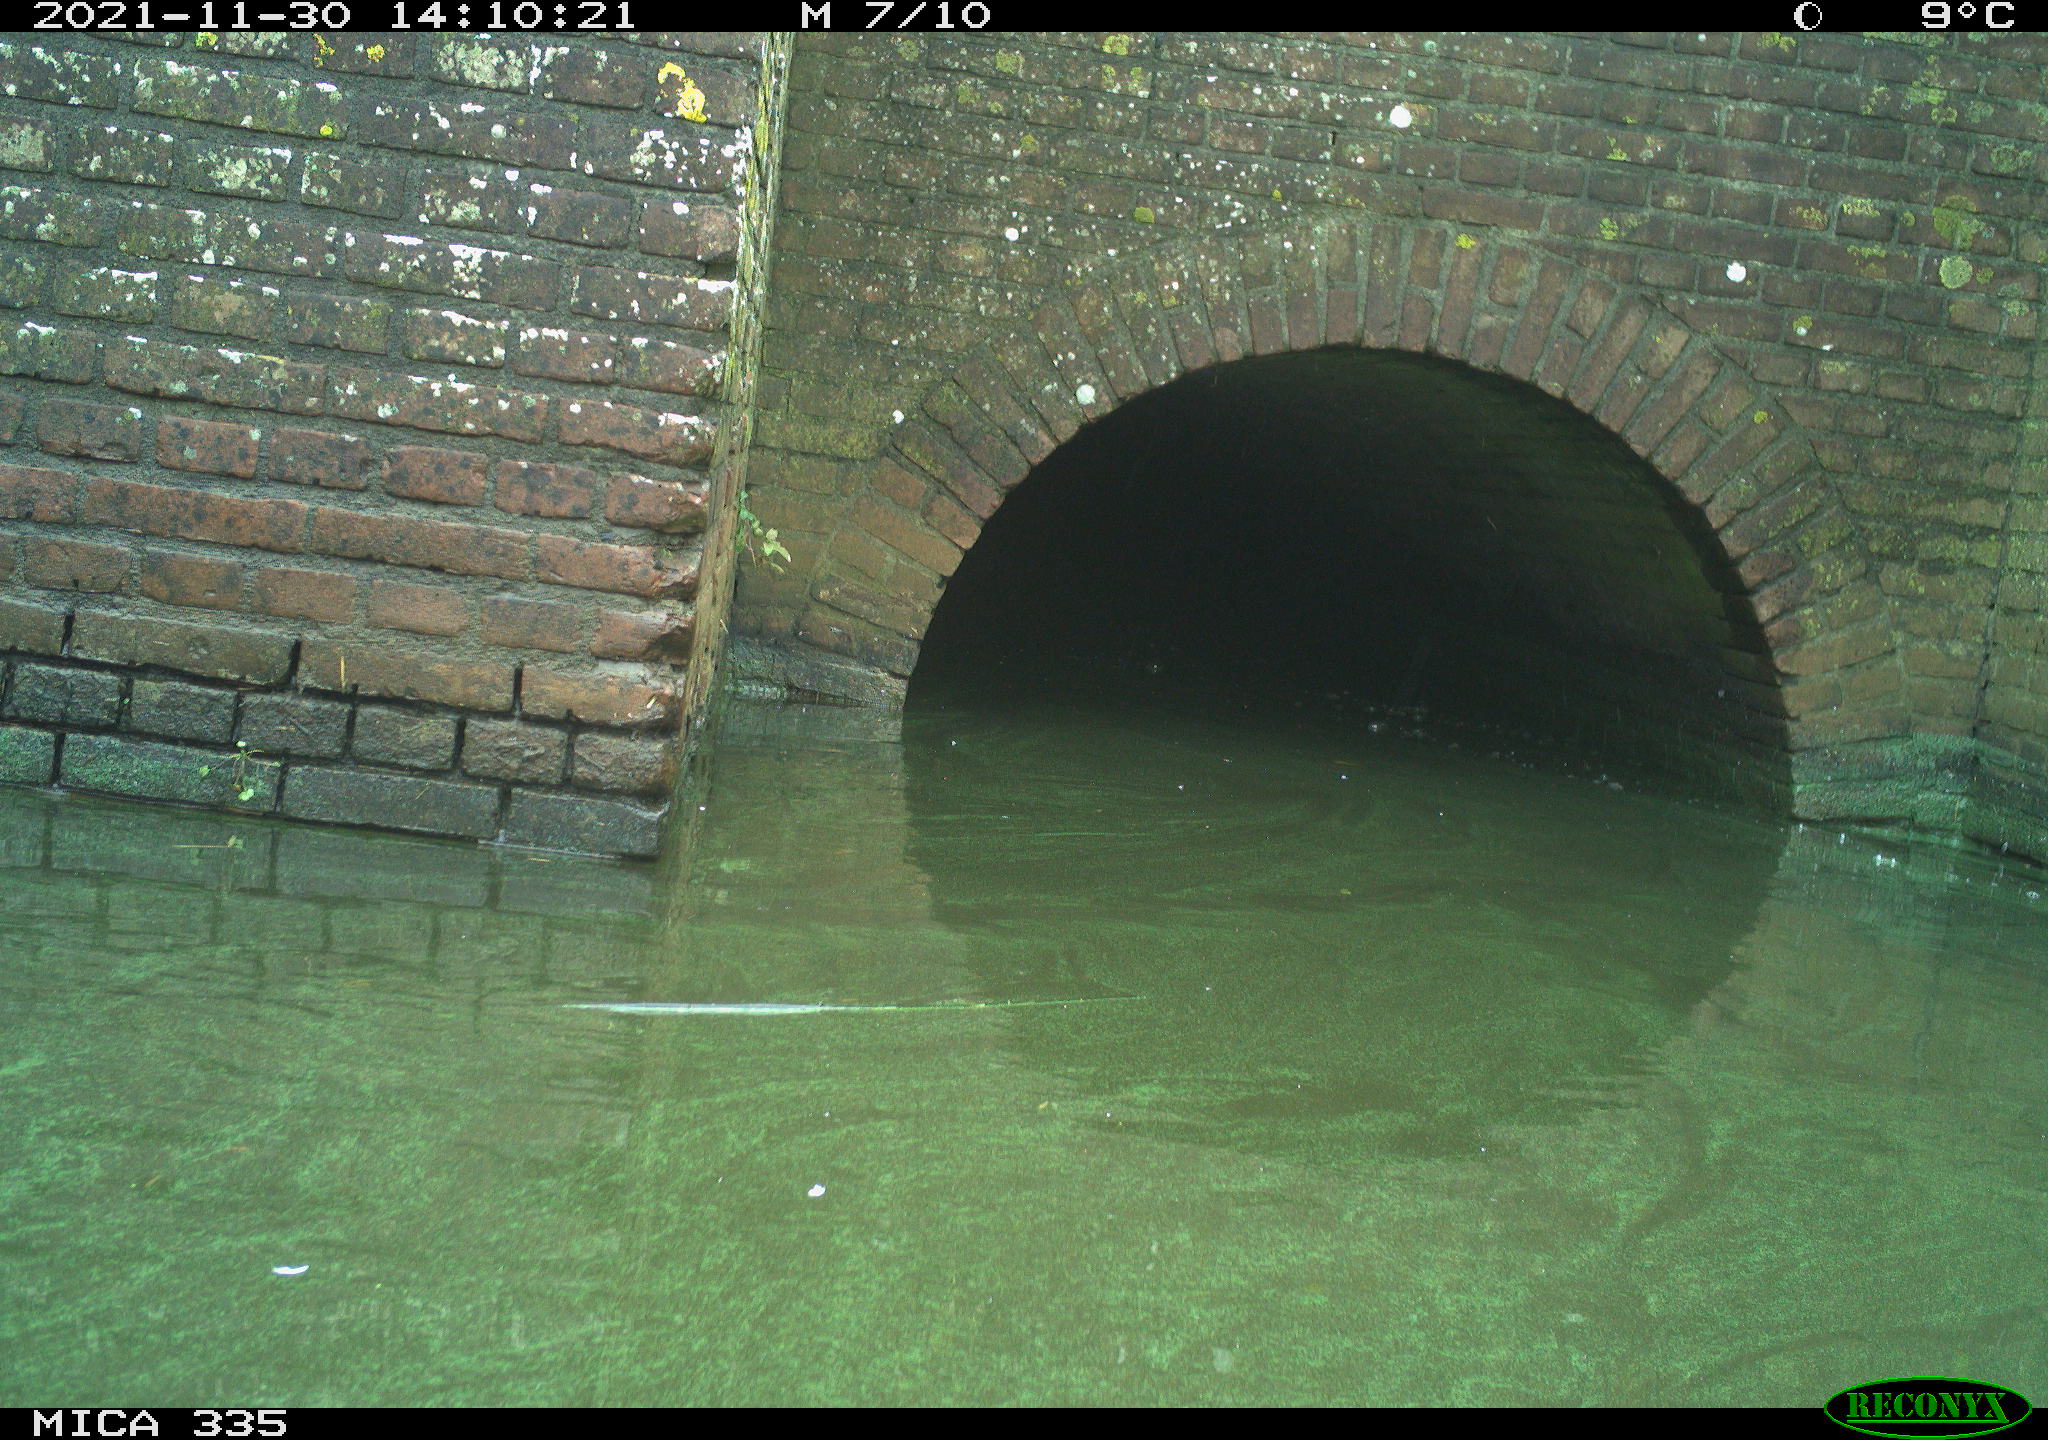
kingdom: Animalia
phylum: Chordata
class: Aves
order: Anseriformes
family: Anatidae
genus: Anas
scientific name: Anas platyrhynchos
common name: Mallard
